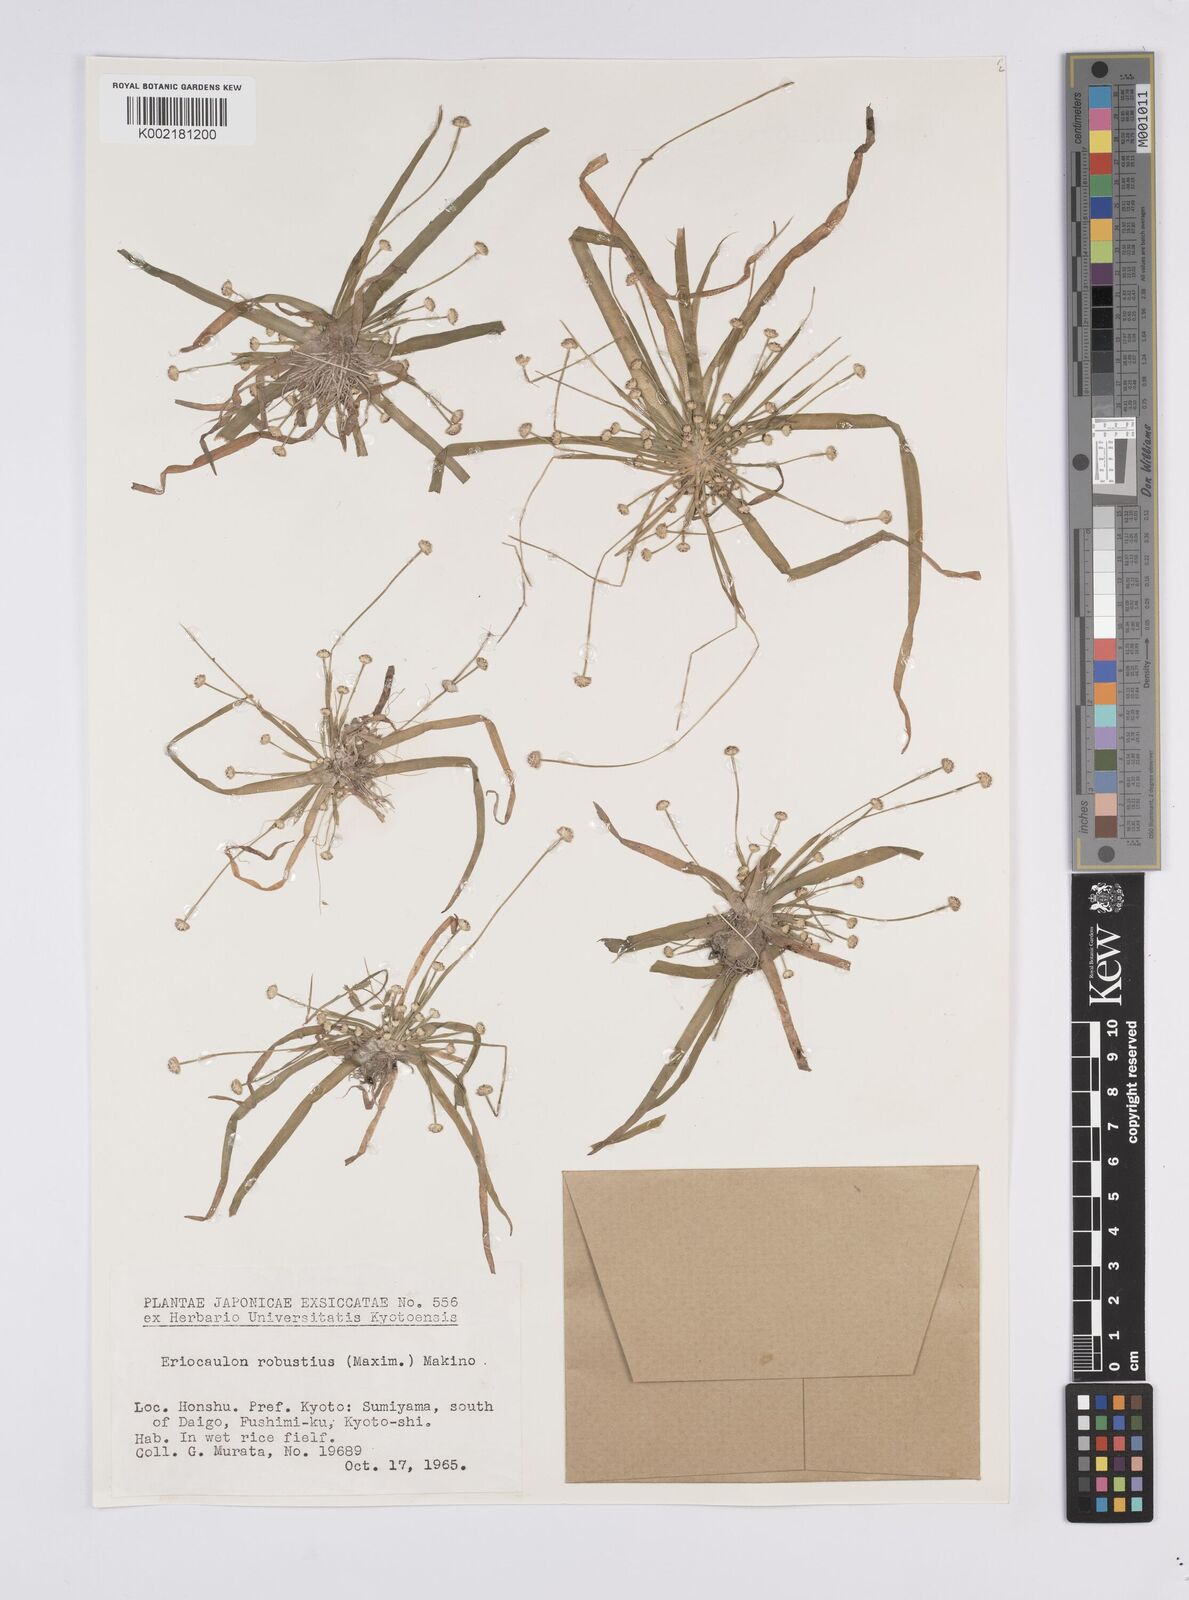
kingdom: Plantae
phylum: Tracheophyta
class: Liliopsida
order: Poales
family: Eriocaulaceae
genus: Eriocaulon
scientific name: Eriocaulon alpestre
